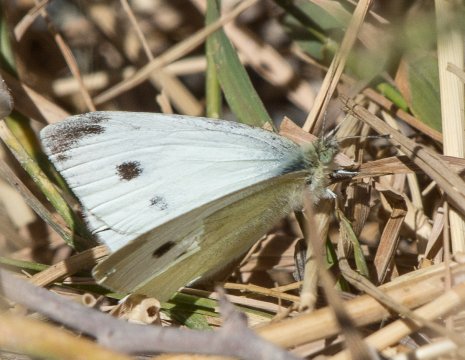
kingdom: Animalia
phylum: Arthropoda
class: Insecta
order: Lepidoptera
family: Pieridae
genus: Pieris
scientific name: Pieris rapae
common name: Cabbage White
